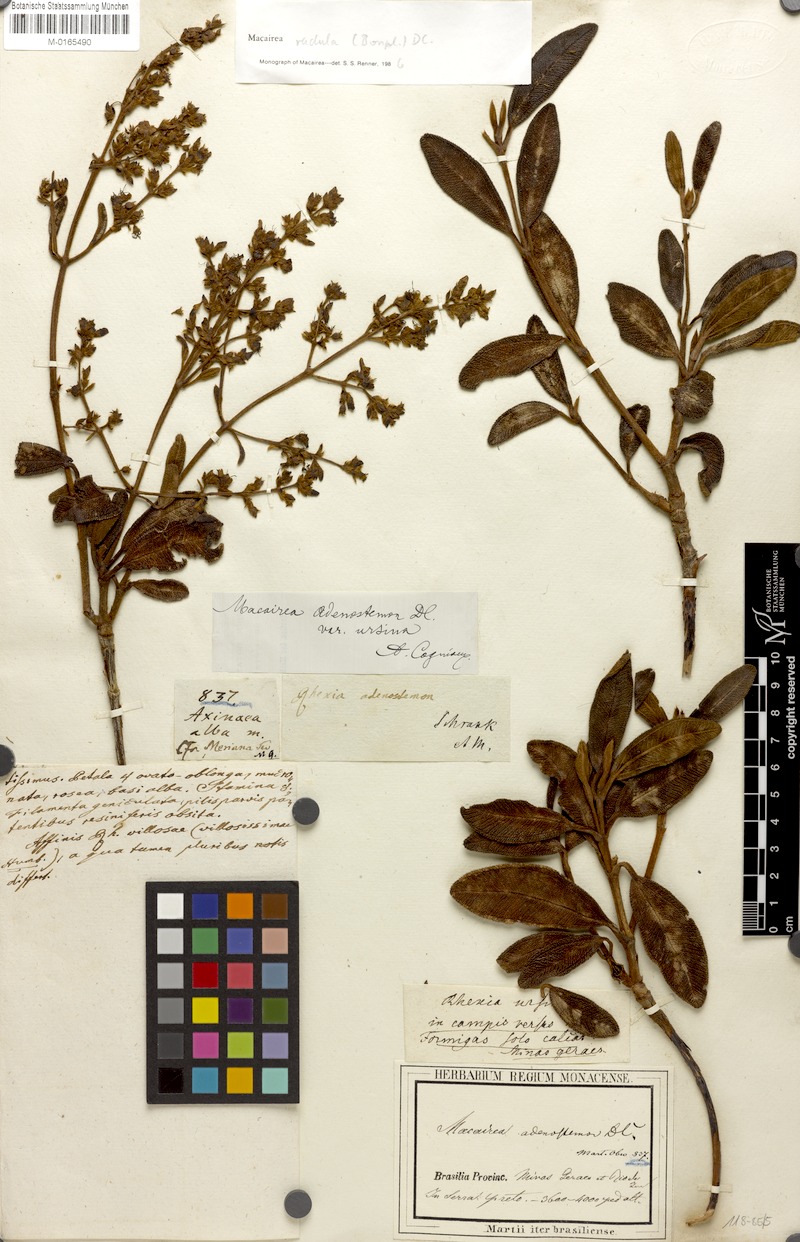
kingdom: Plantae
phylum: Tracheophyta
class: Magnoliopsida
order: Myrtales
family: Melastomataceae
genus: Macairea
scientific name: Macairea radula
